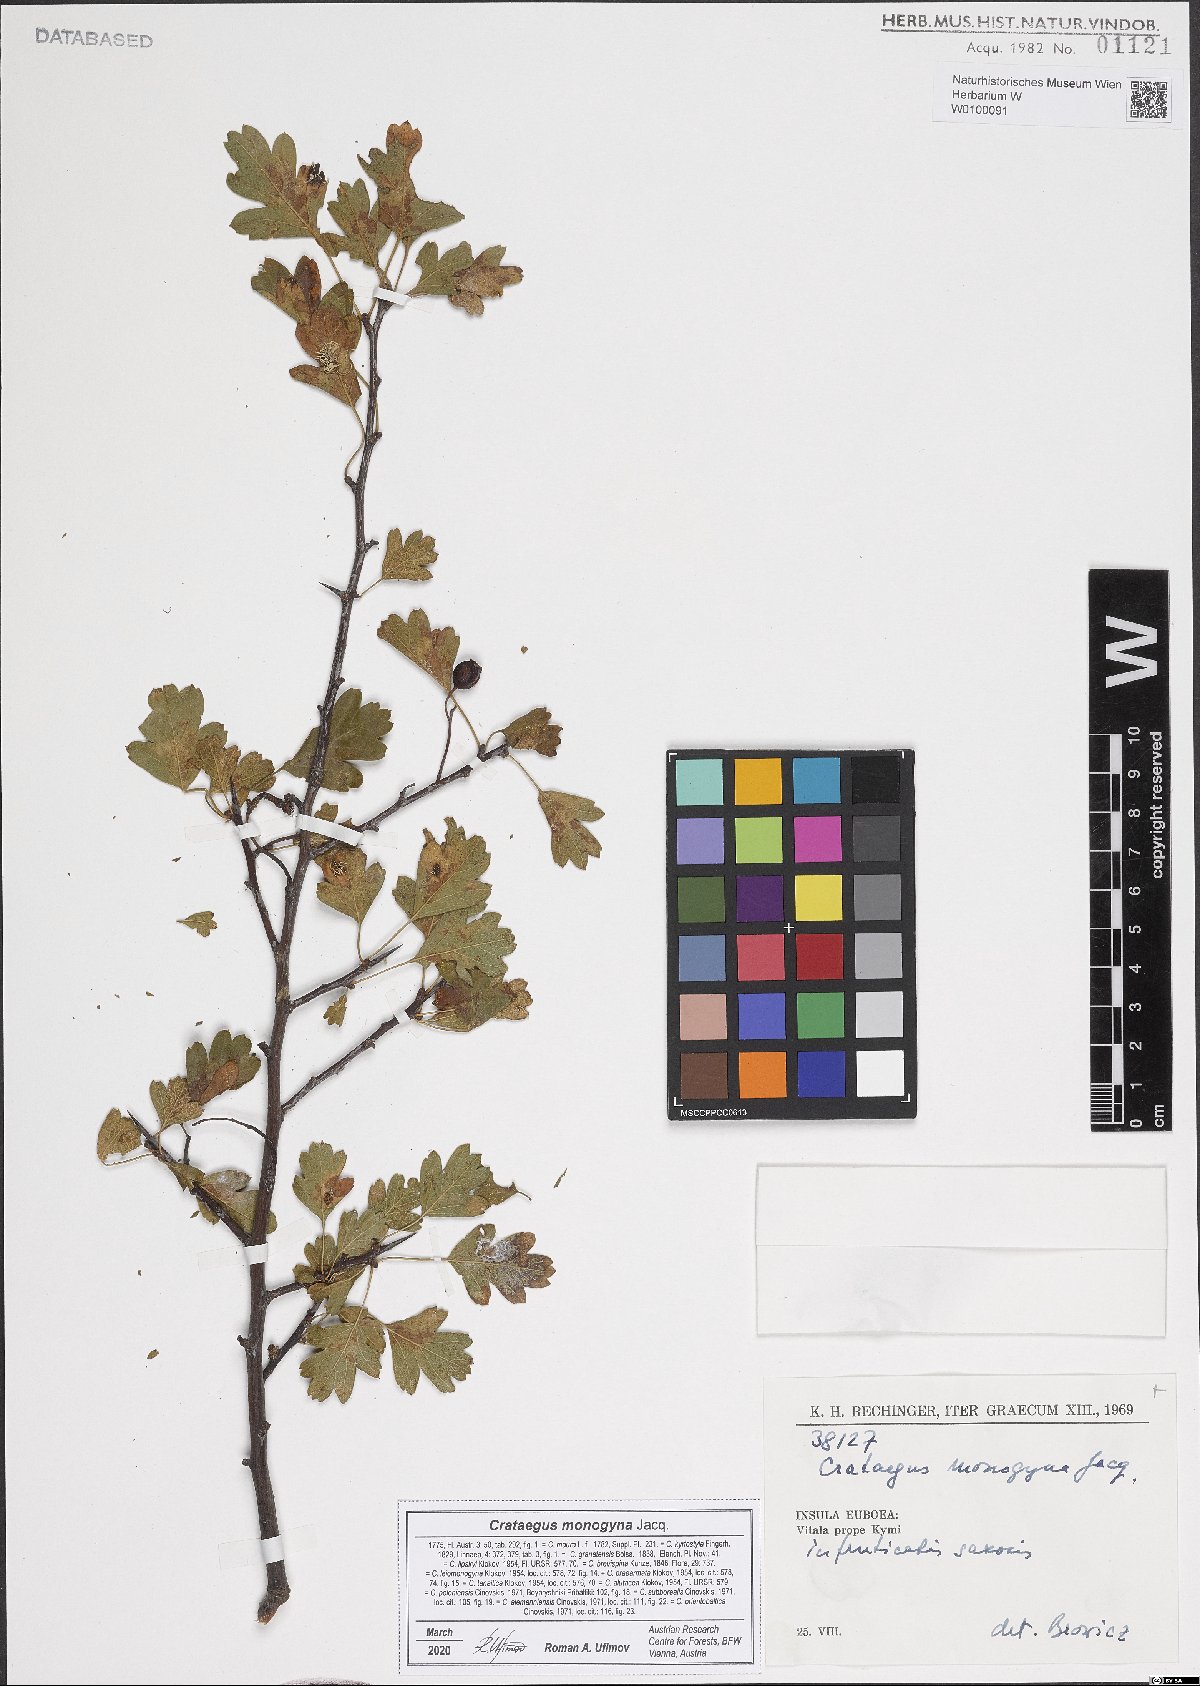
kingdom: Plantae
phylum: Tracheophyta
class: Magnoliopsida
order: Rosales
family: Rosaceae
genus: Crataegus
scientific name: Crataegus monogyna
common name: Hawthorn
